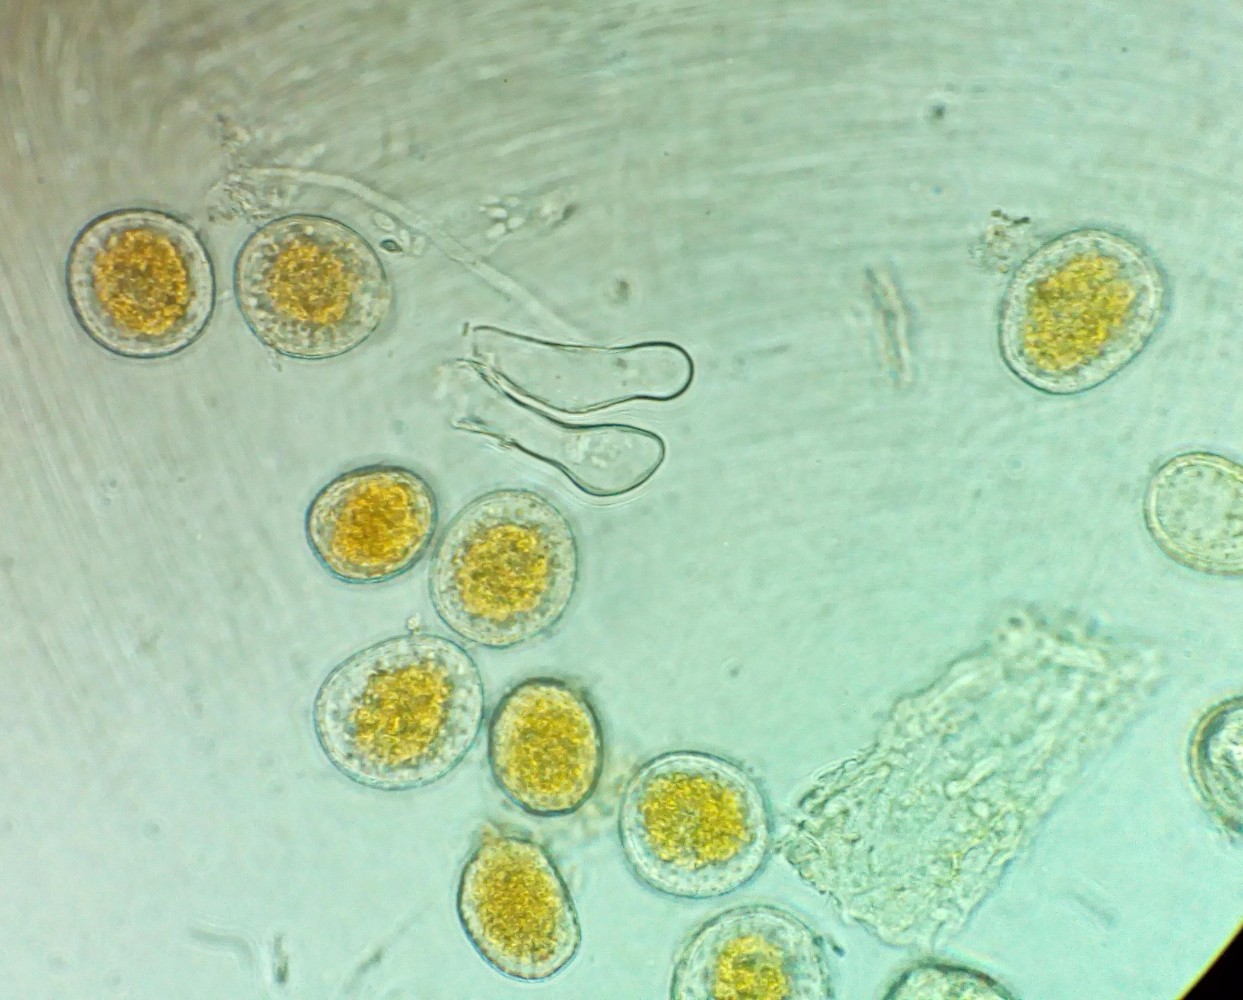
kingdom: Fungi
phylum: Basidiomycota
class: Pucciniomycetes
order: Pucciniales
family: Pucciniaceae
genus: Puccinia
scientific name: Puccinia coronata
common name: Crown rust
